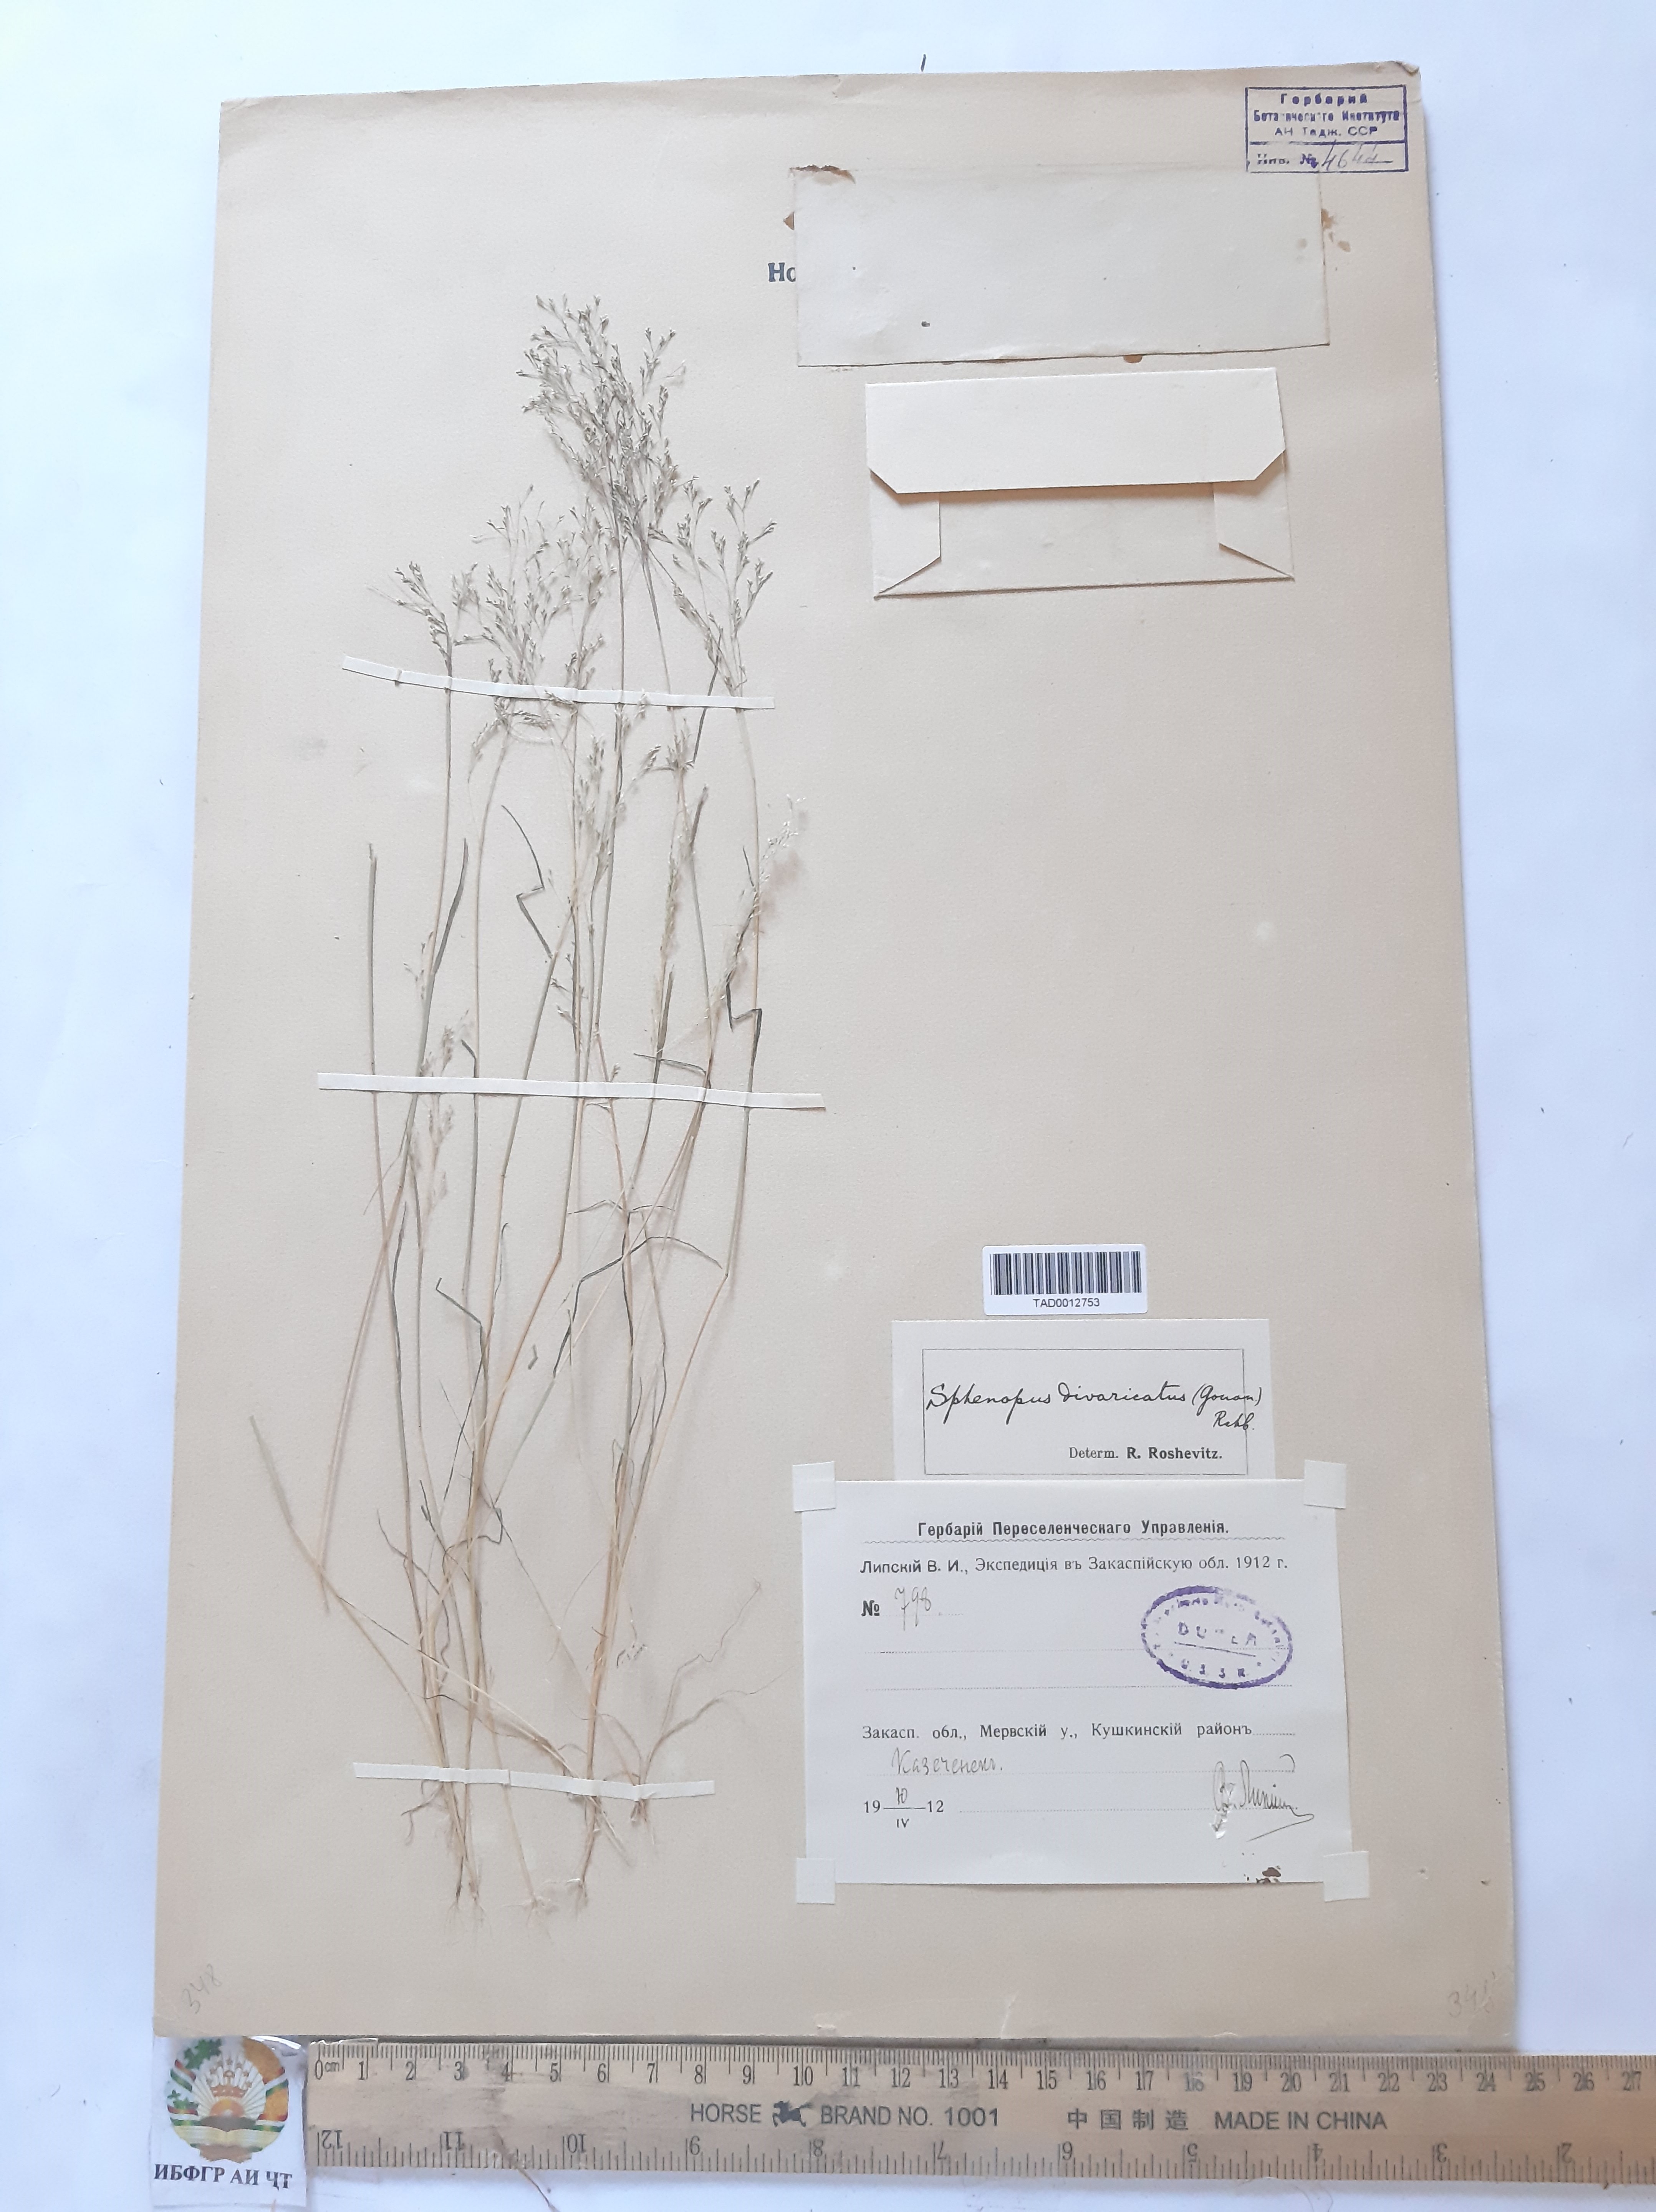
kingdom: Plantae
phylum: Tracheophyta
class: Liliopsida
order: Poales
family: Poaceae
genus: Sphenopus
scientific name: Sphenopus divaricatus
